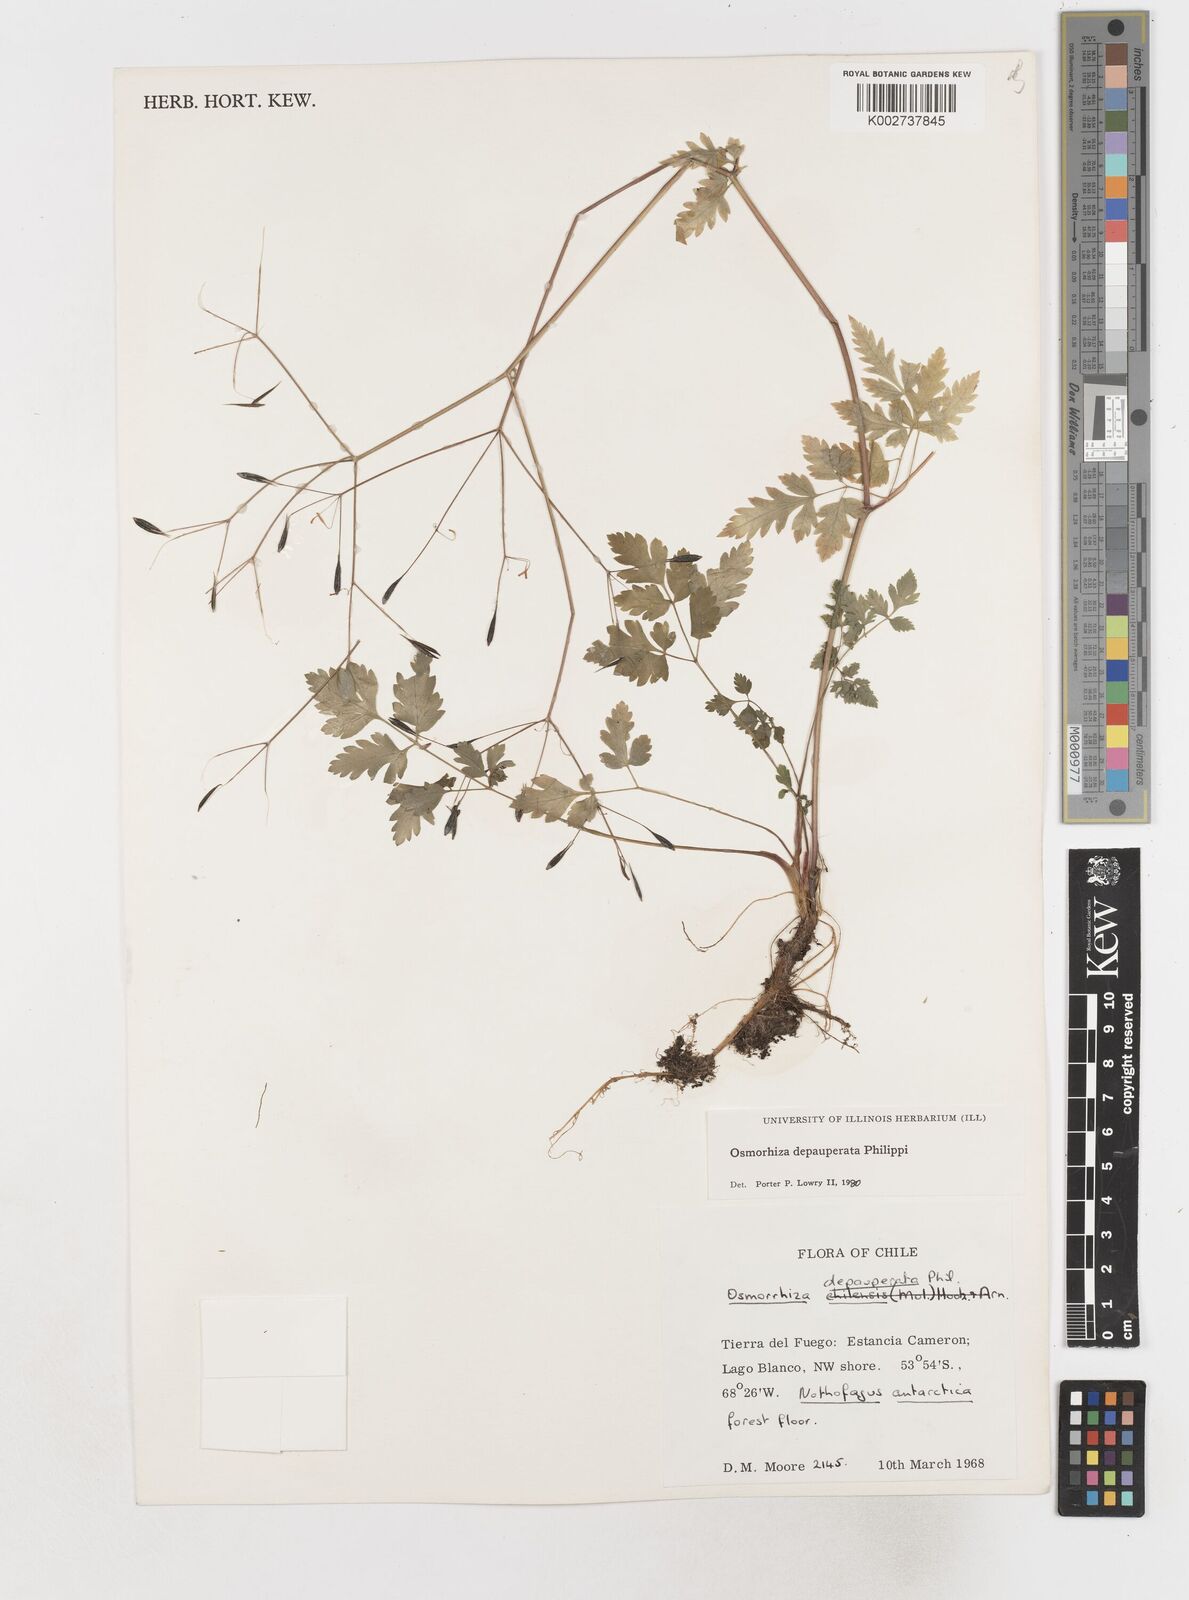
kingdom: Plantae
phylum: Tracheophyta
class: Magnoliopsida
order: Apiales
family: Apiaceae
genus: Osmorhiza
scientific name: Osmorhiza depauperata
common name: Blunt sweet cicely
